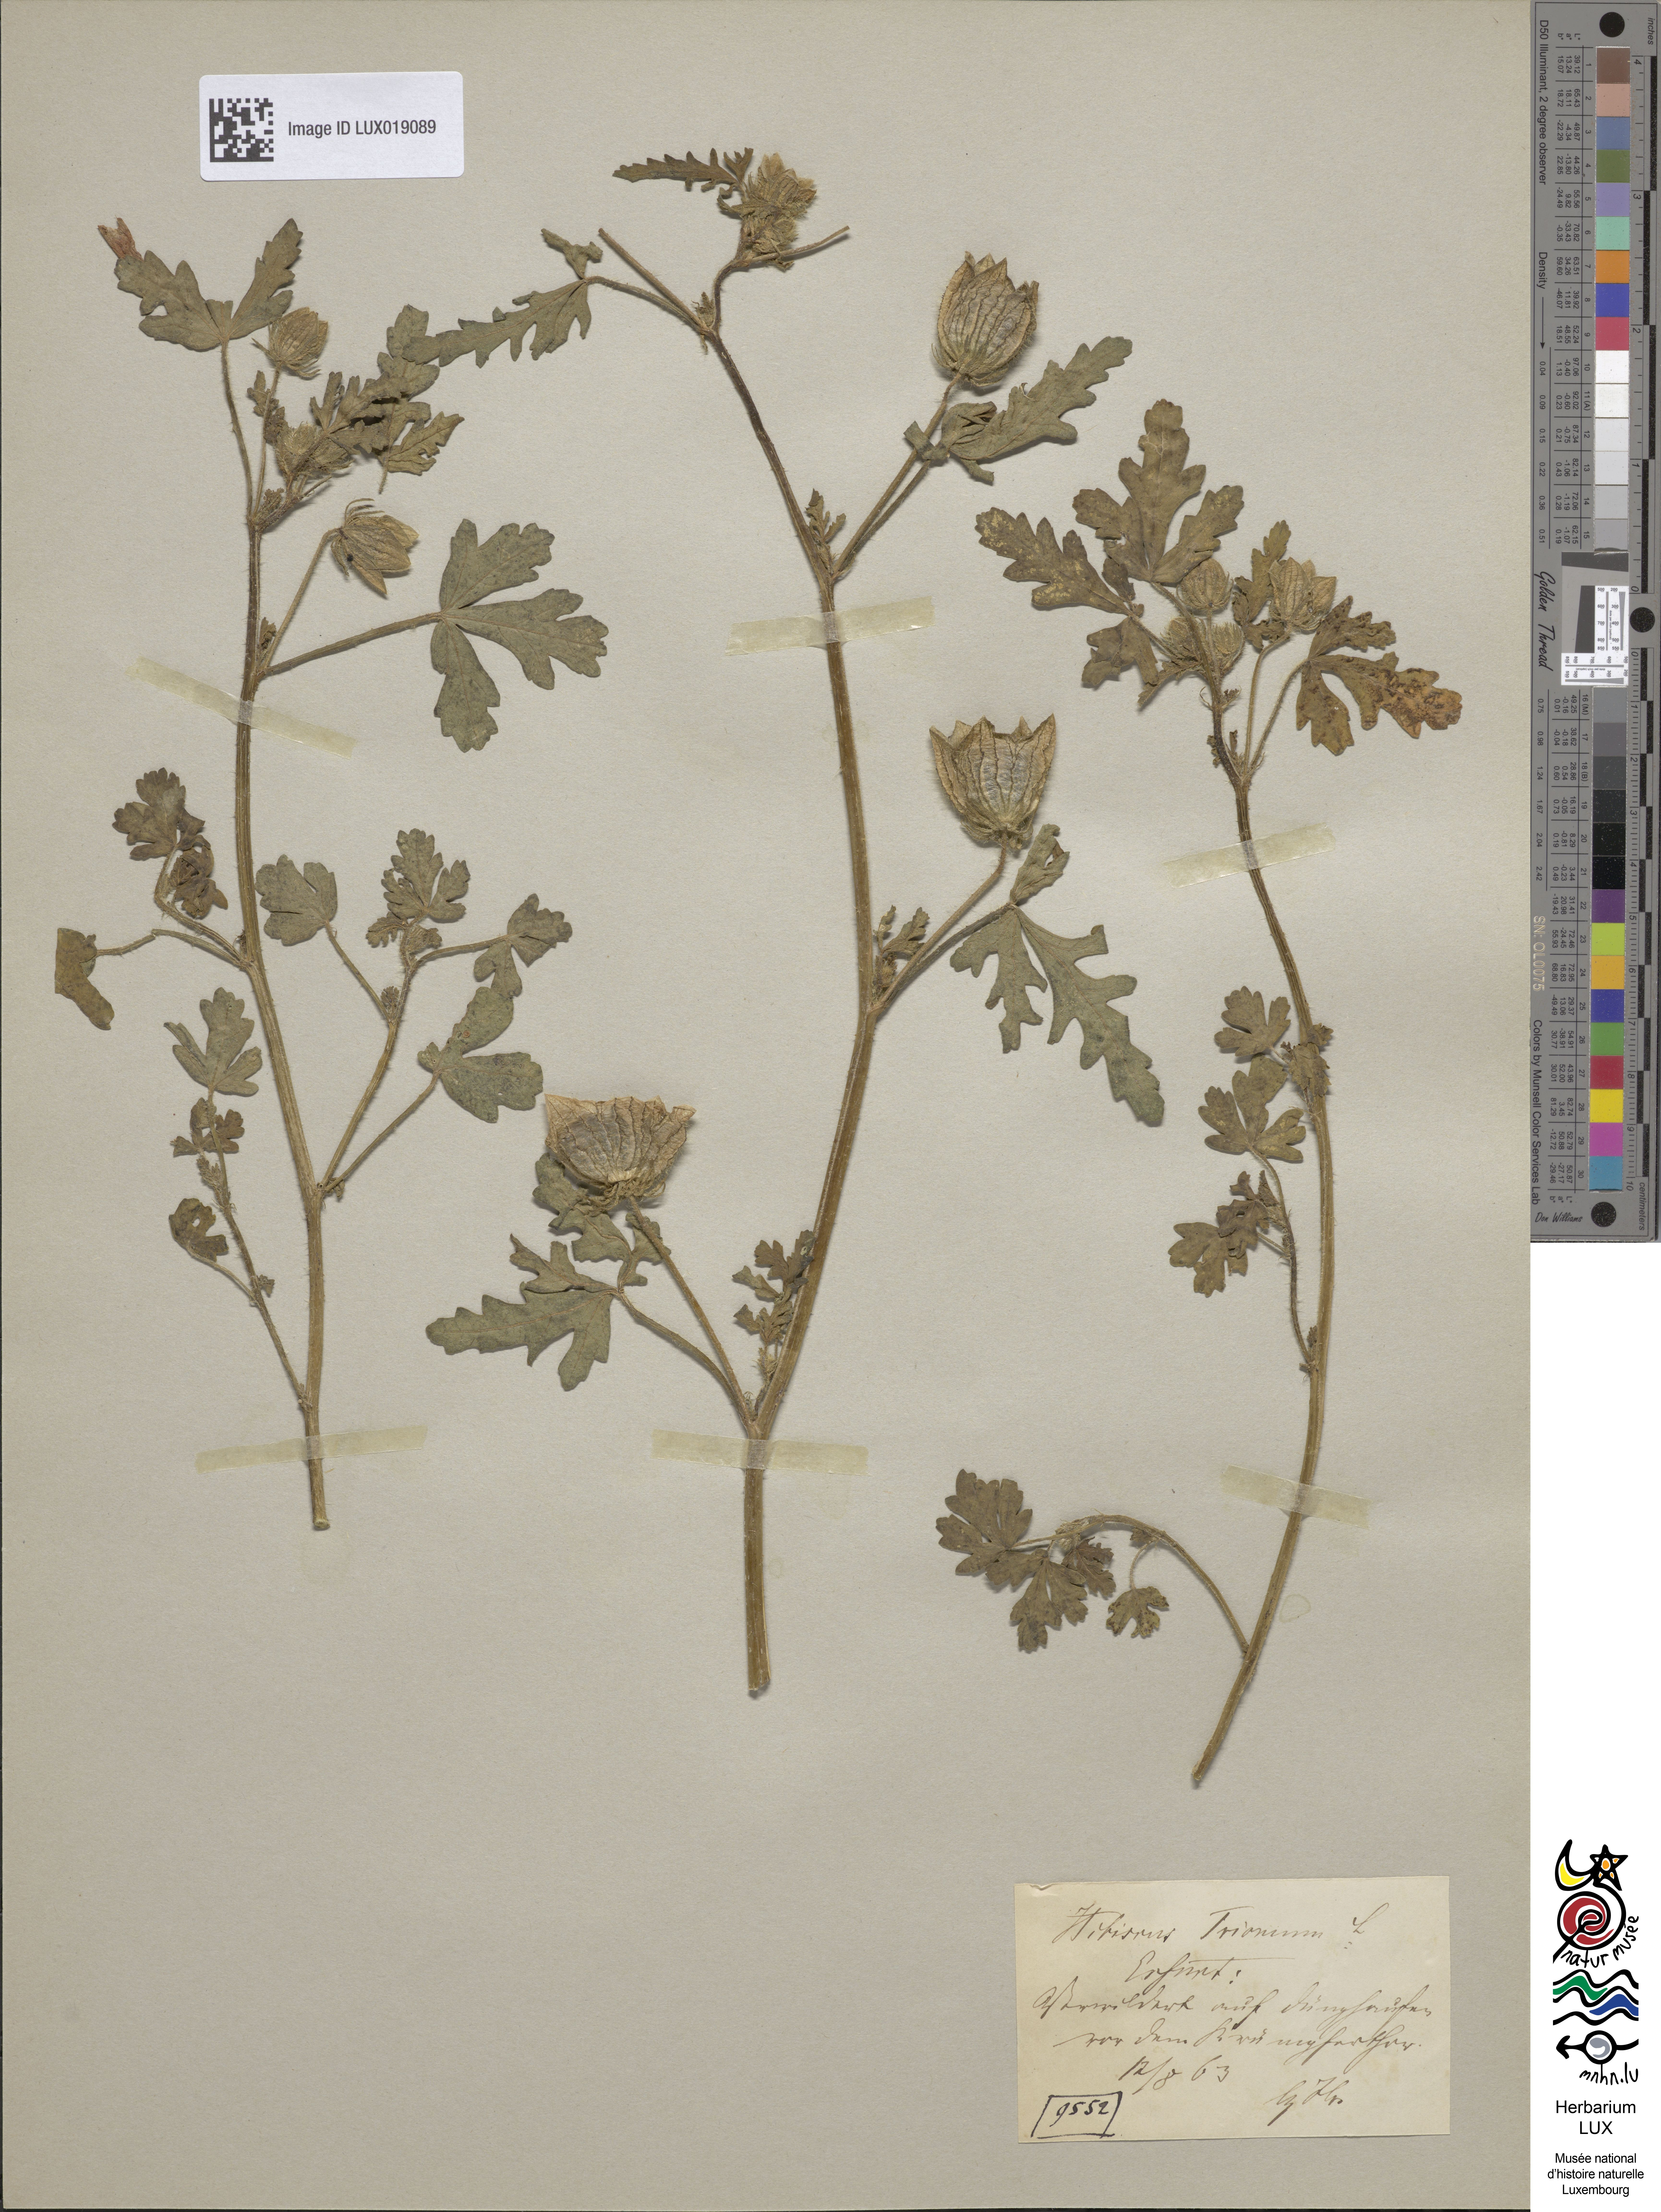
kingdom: Plantae
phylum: Tracheophyta
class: Magnoliopsida
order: Malvales
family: Malvaceae
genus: Hibiscus
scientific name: Hibiscus trionum
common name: Bladder ketmia
